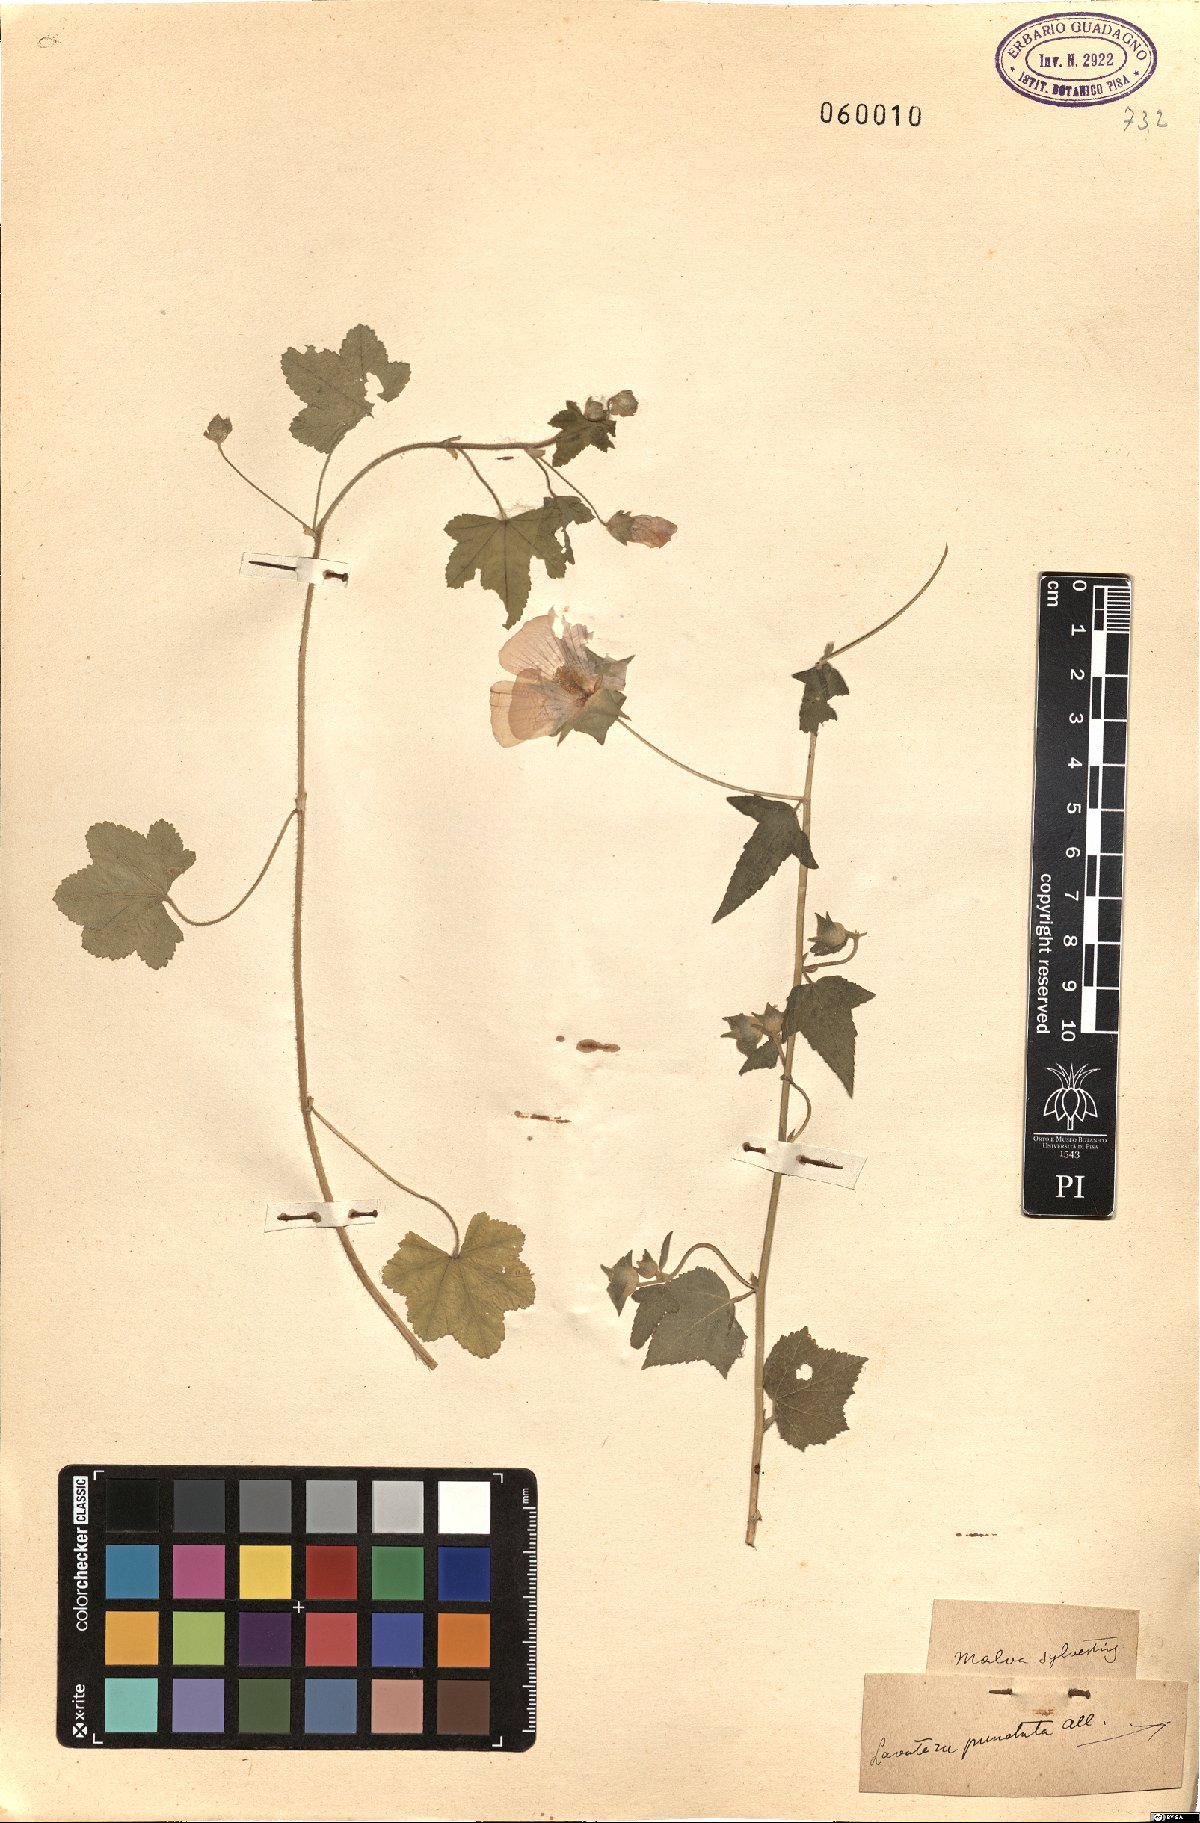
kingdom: Plantae
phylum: Tracheophyta
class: Magnoliopsida
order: Malvales
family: Malvaceae
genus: Malva
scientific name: Malva sylvestris
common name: Common mallow
